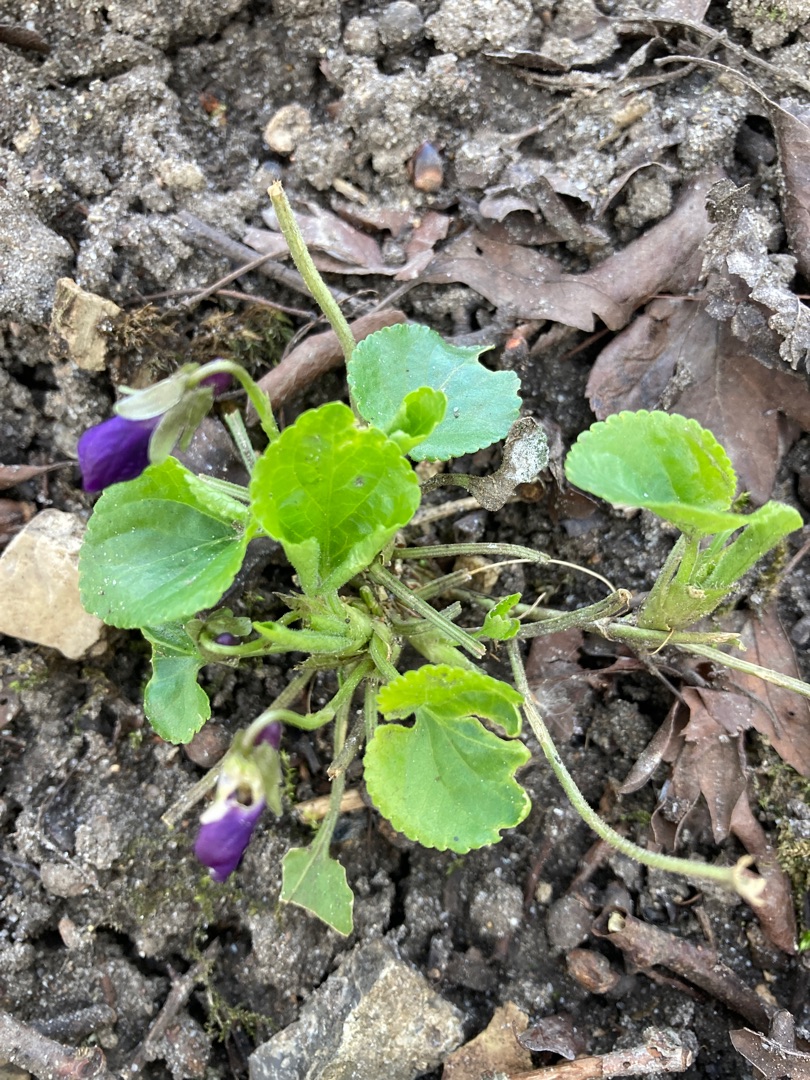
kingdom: Plantae
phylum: Tracheophyta
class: Magnoliopsida
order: Malpighiales
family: Violaceae
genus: Viola
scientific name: Viola odorata
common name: Marts-viol
